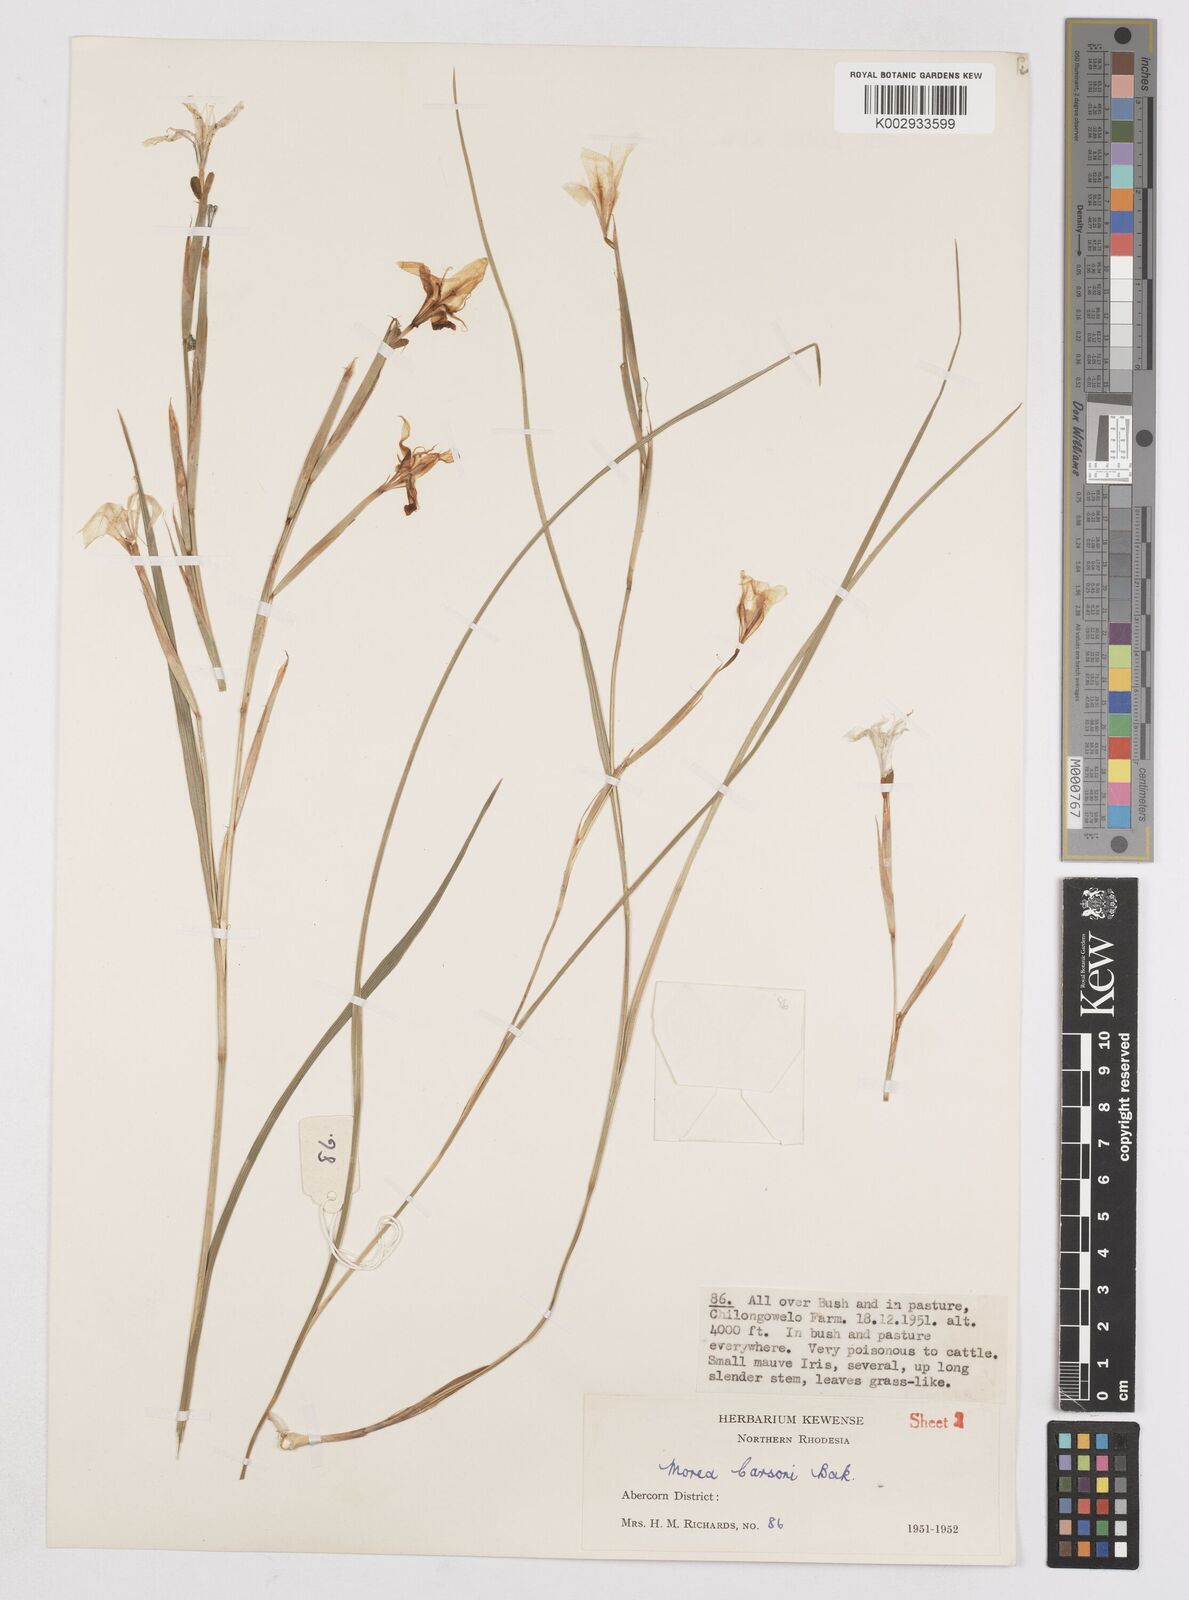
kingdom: Plantae
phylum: Tracheophyta
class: Liliopsida
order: Asparagales
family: Iridaceae
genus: Moraea
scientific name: Moraea carsonii
